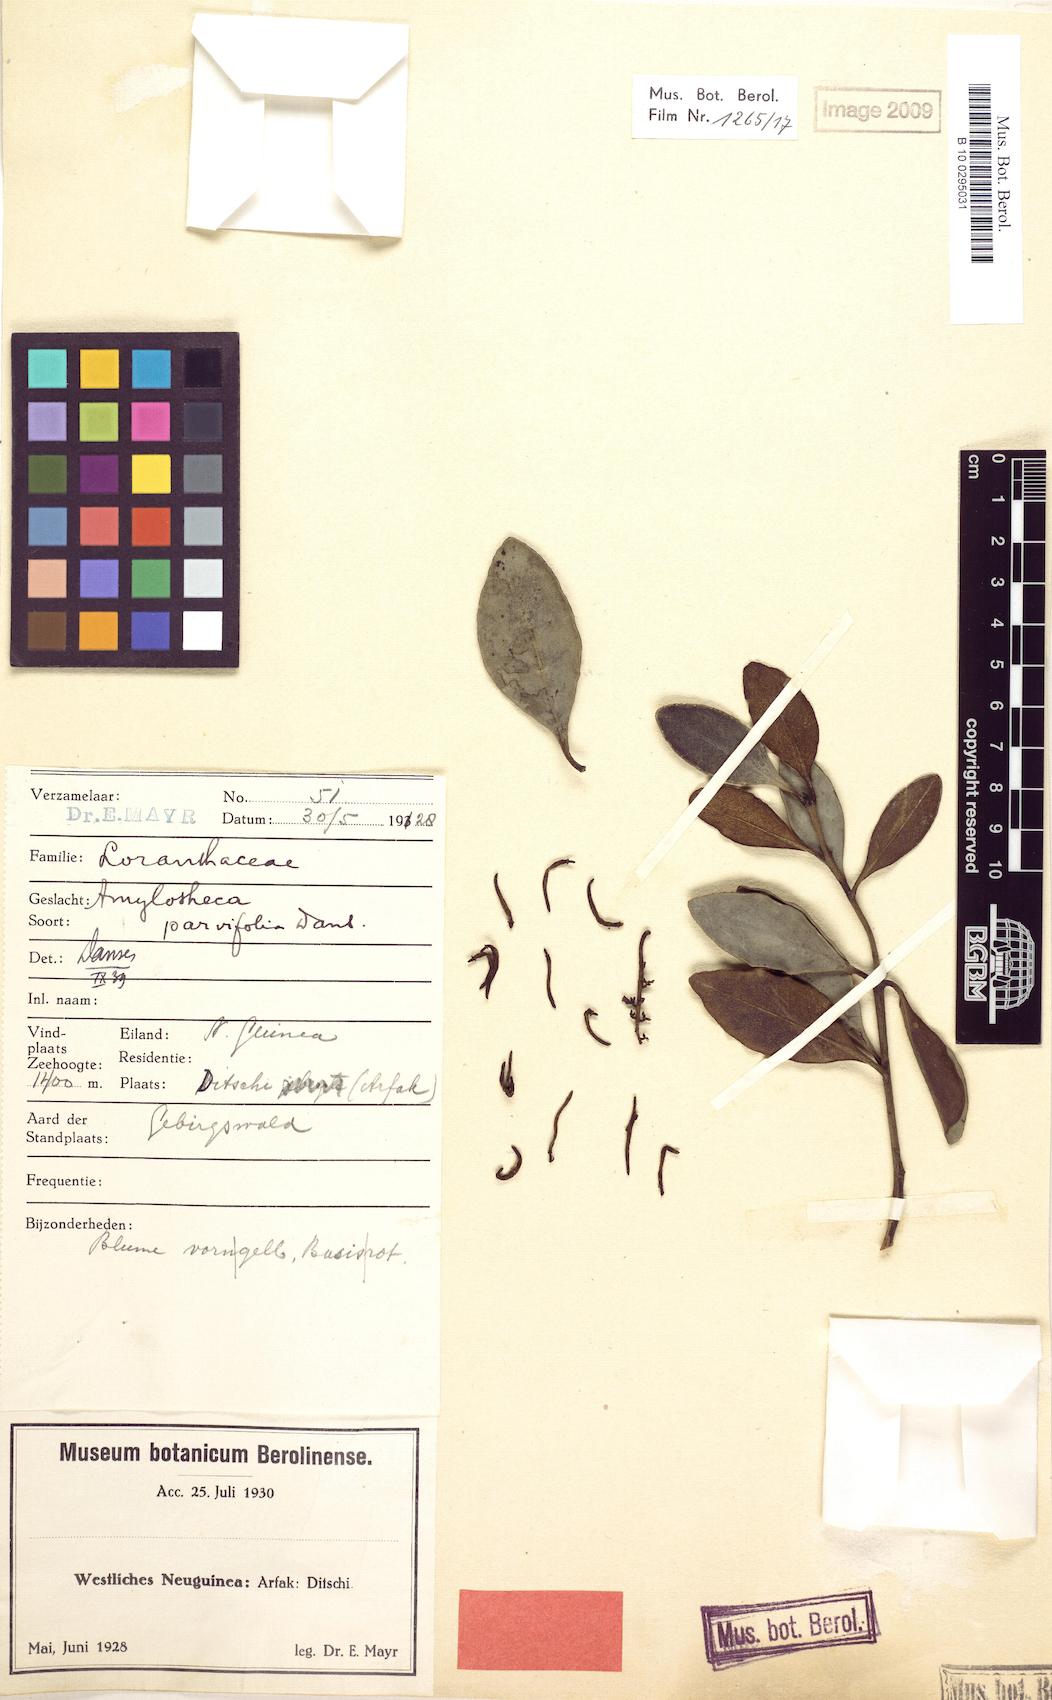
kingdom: Plantae
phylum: Tracheophyta
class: Magnoliopsida
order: Santalales
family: Loranthaceae
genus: Decaisnina
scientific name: Decaisnina sumbawensis
